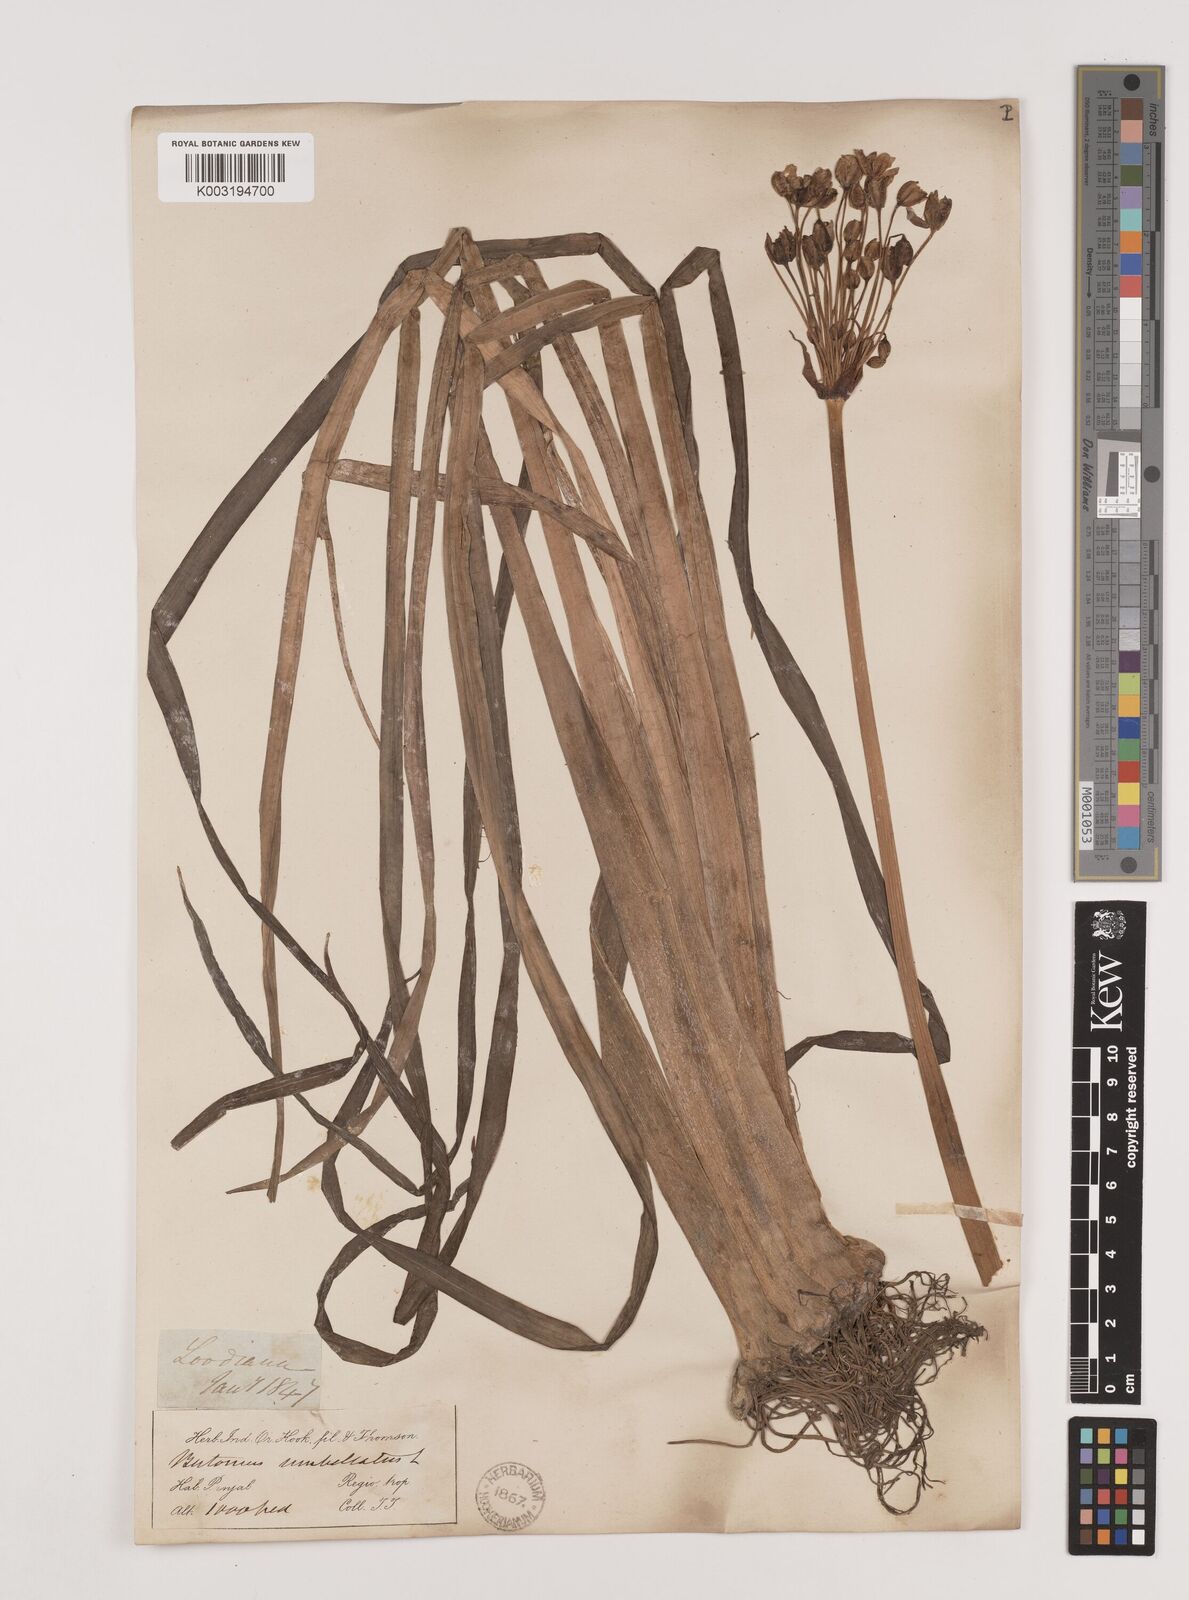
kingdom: Plantae
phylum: Tracheophyta
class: Liliopsida
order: Alismatales
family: Butomaceae
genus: Butomus
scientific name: Butomus umbellatus
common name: Flowering-rush
